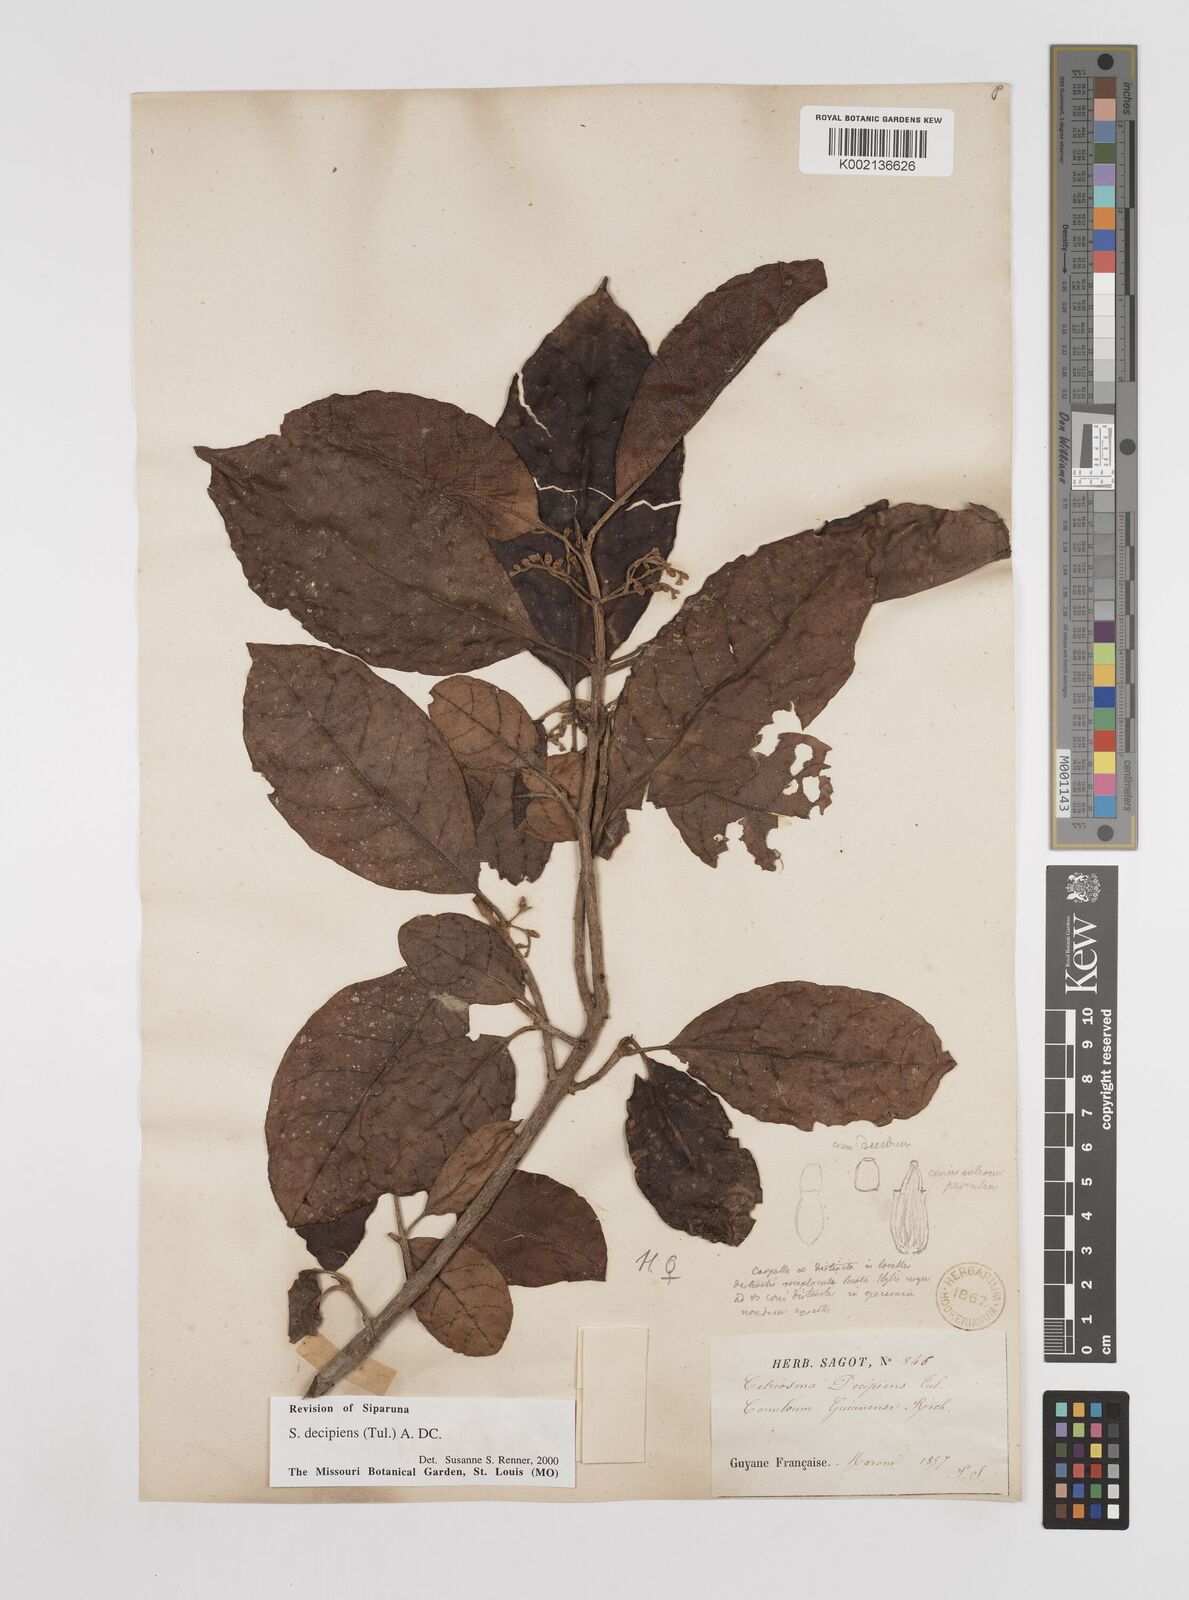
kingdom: Plantae
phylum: Tracheophyta
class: Magnoliopsida
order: Laurales
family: Siparunaceae
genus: Siparuna
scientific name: Siparuna decipiens
